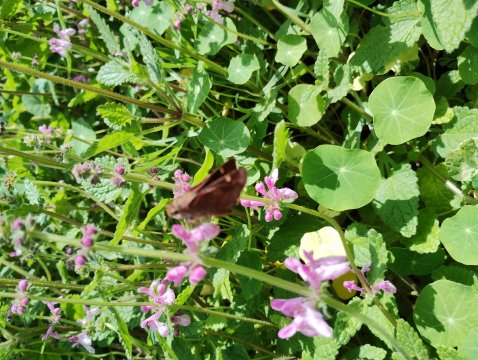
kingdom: Animalia
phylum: Arthropoda
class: Insecta
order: Lepidoptera
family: Hesperiidae
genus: Lon
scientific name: Lon melane
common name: Umber Skipper
